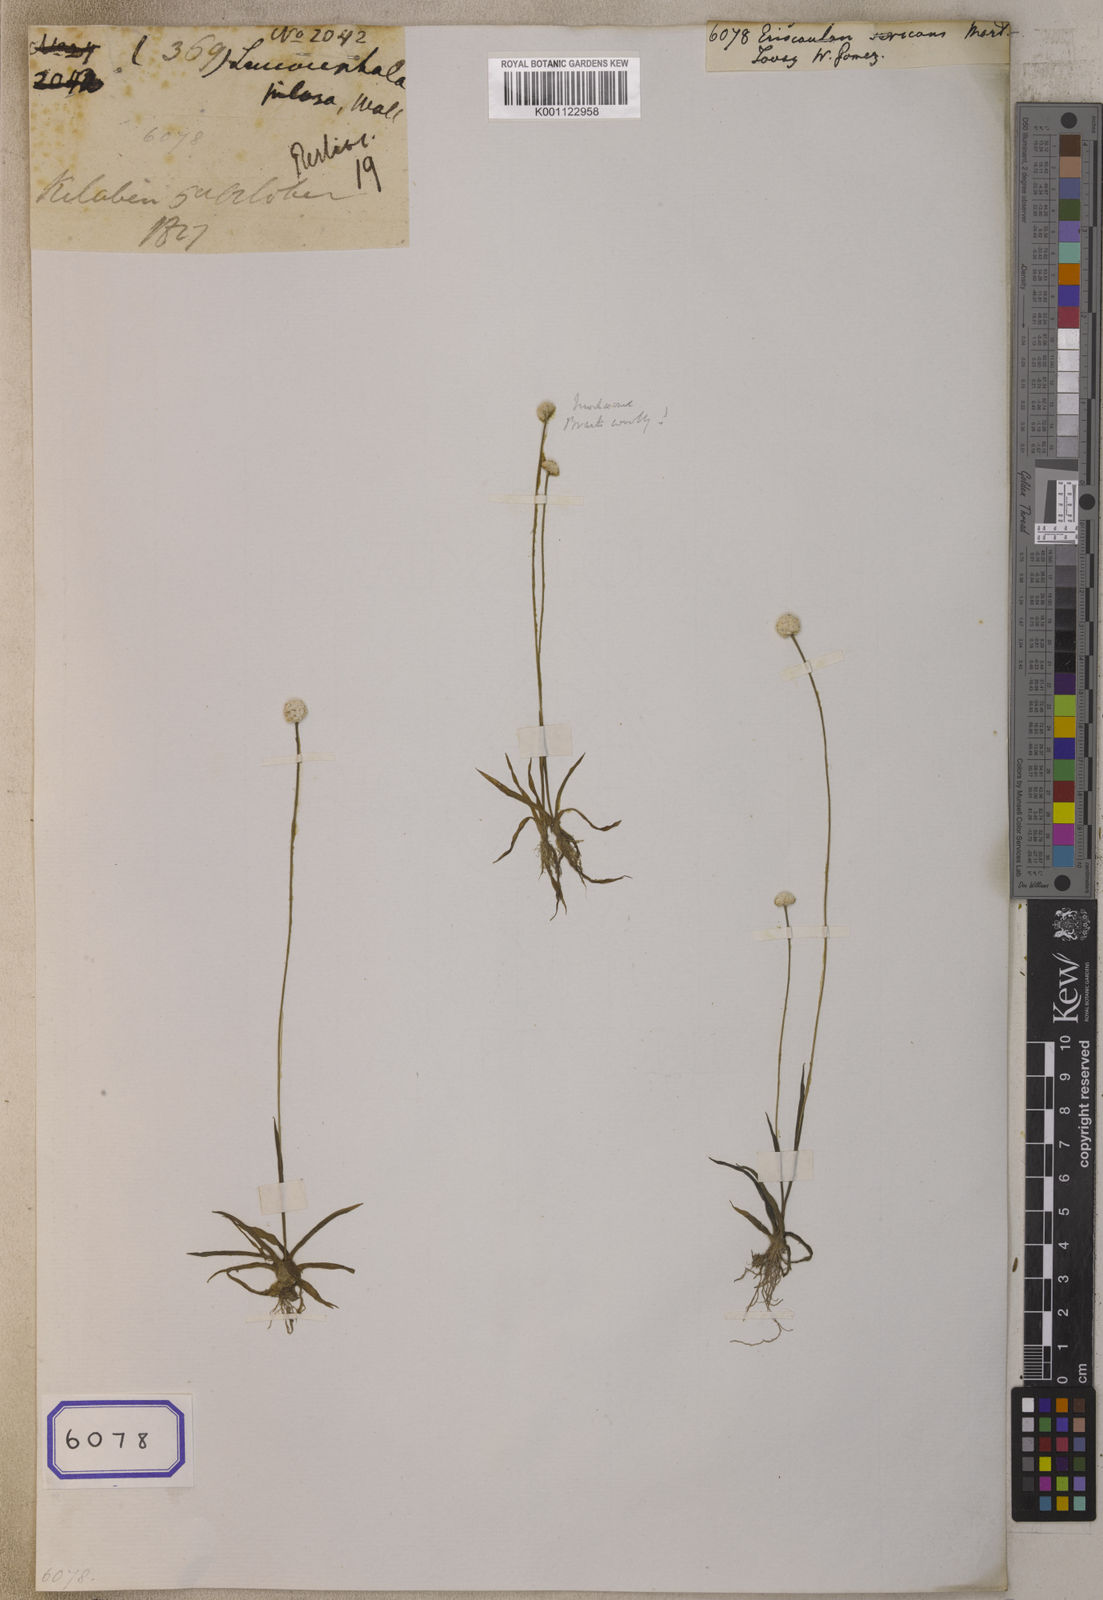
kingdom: Plantae
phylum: Tracheophyta
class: Liliopsida
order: Poales
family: Eriocaulaceae
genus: Eriocaulon
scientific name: Eriocaulon wightianum
